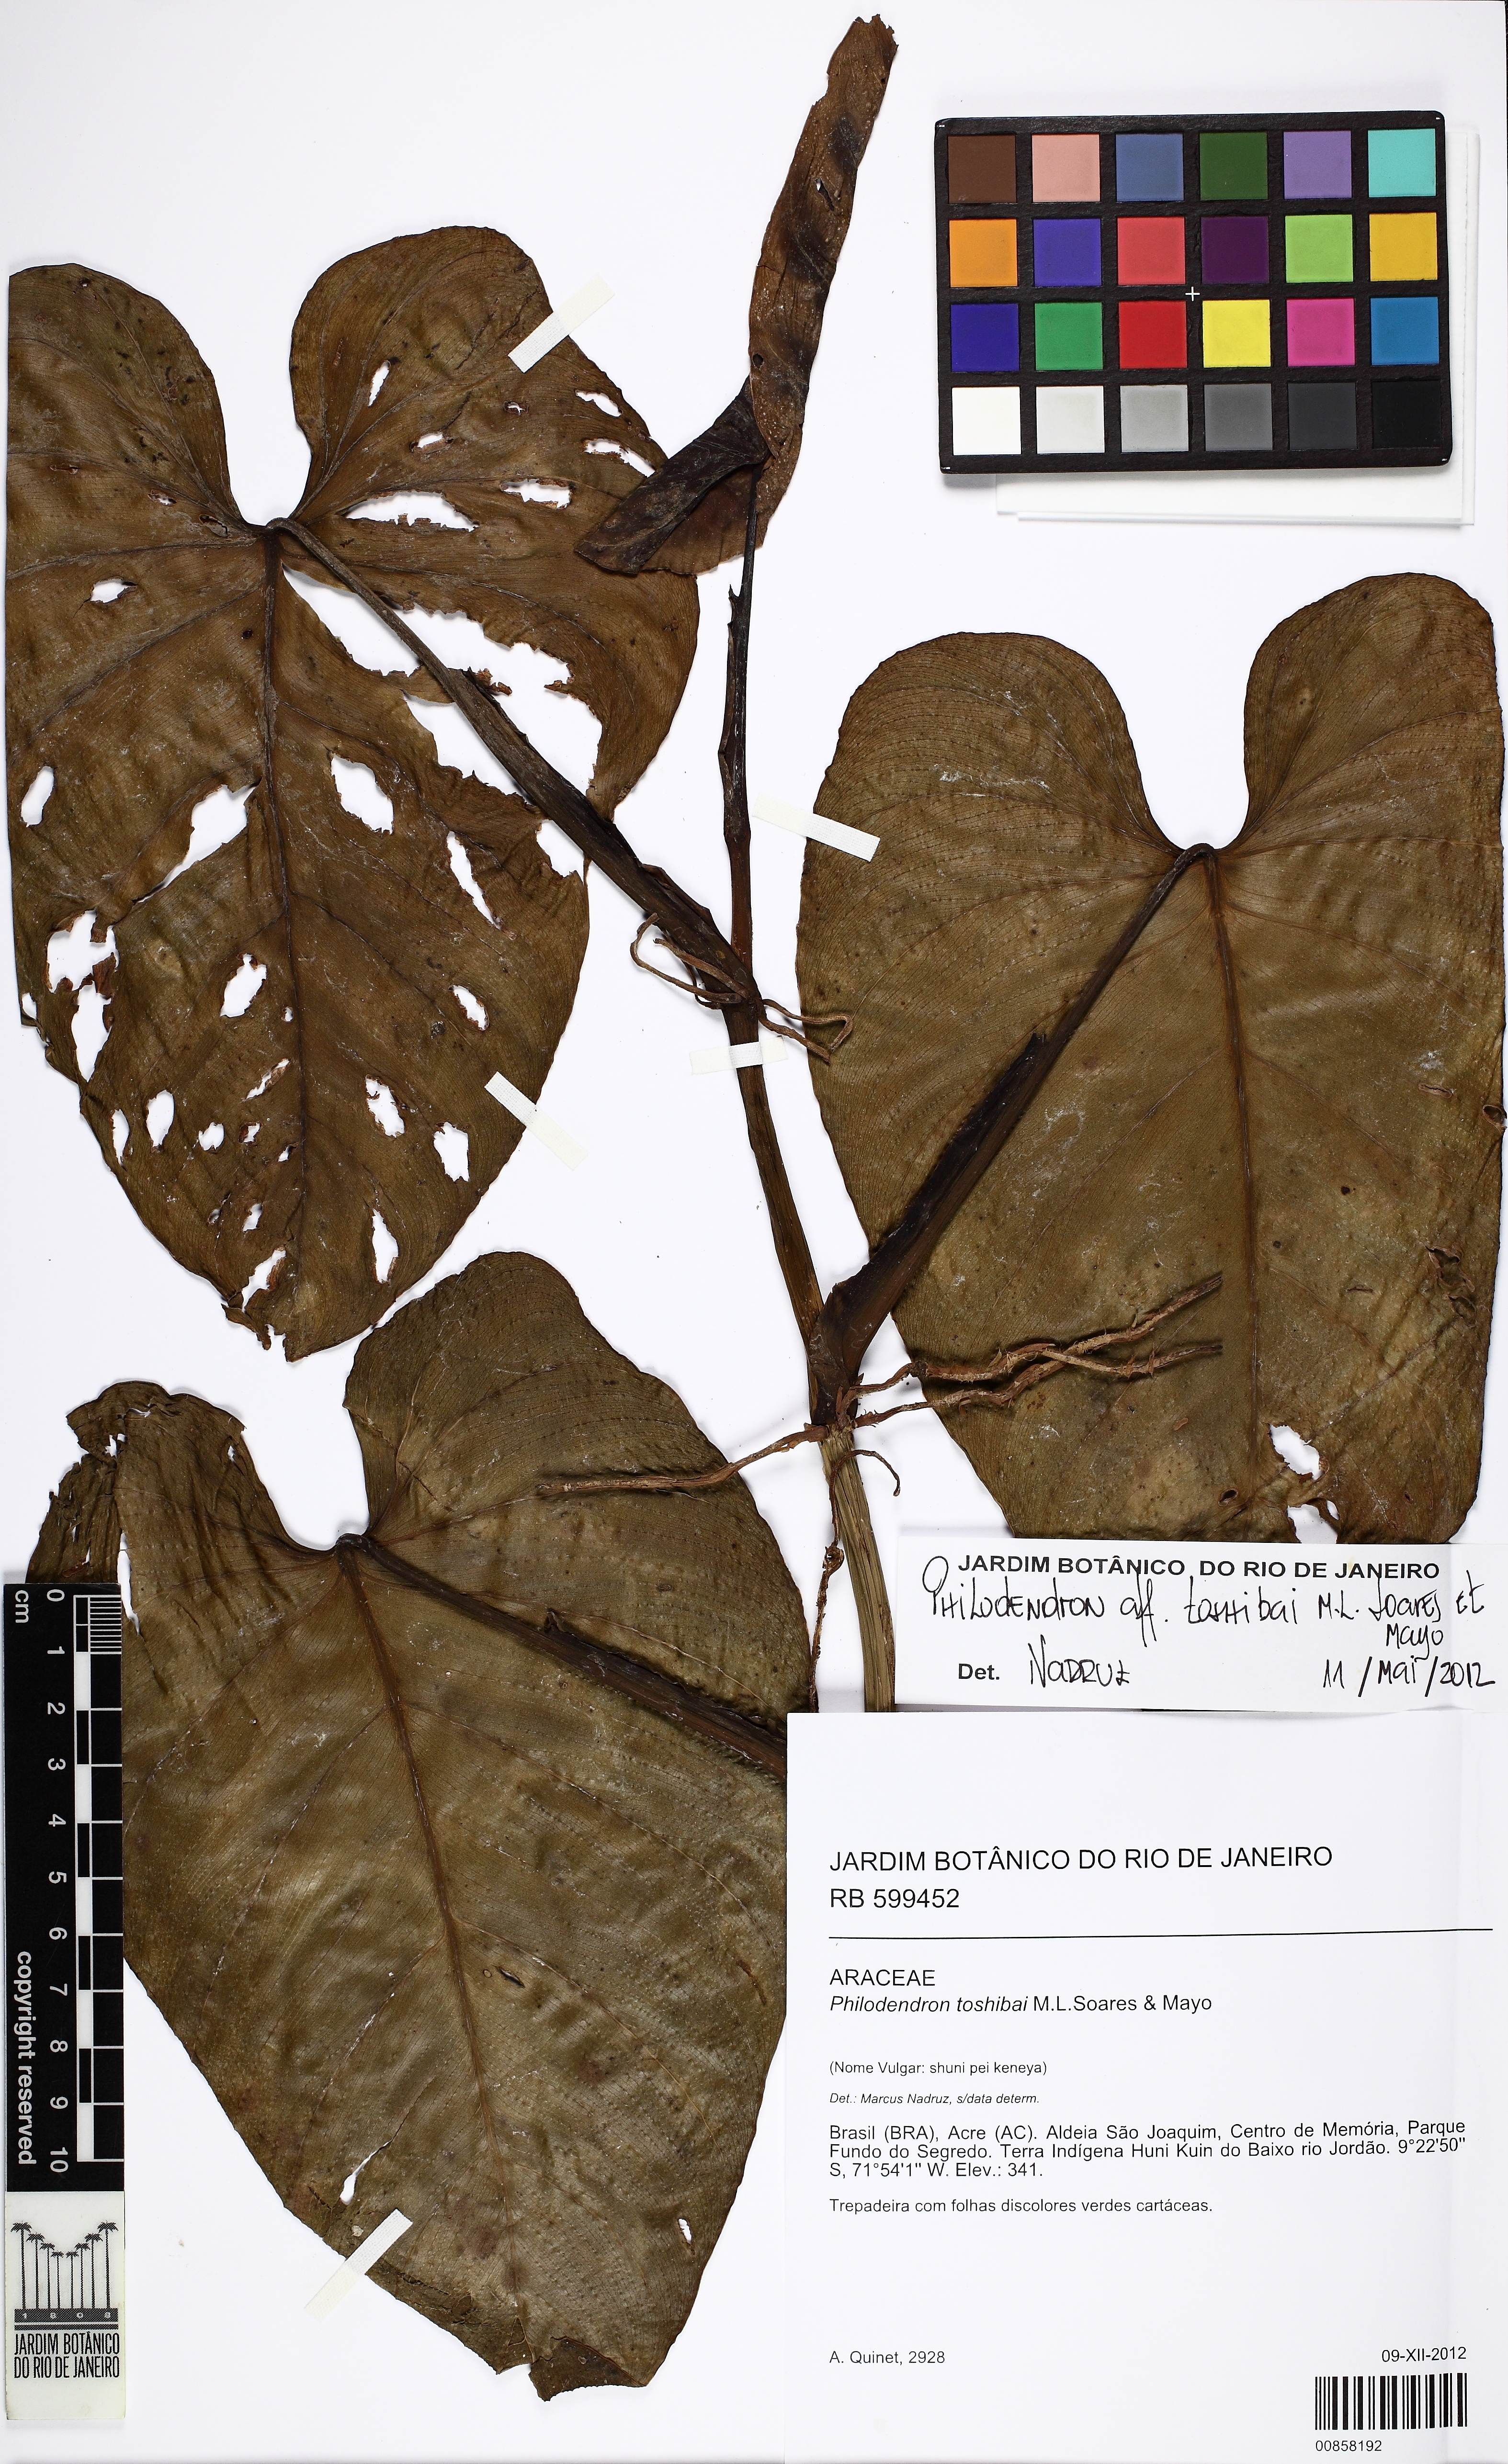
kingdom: Plantae
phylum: Tracheophyta
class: Liliopsida
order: Alismatales
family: Araceae
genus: Philodendron
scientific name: Philodendron toshibai
